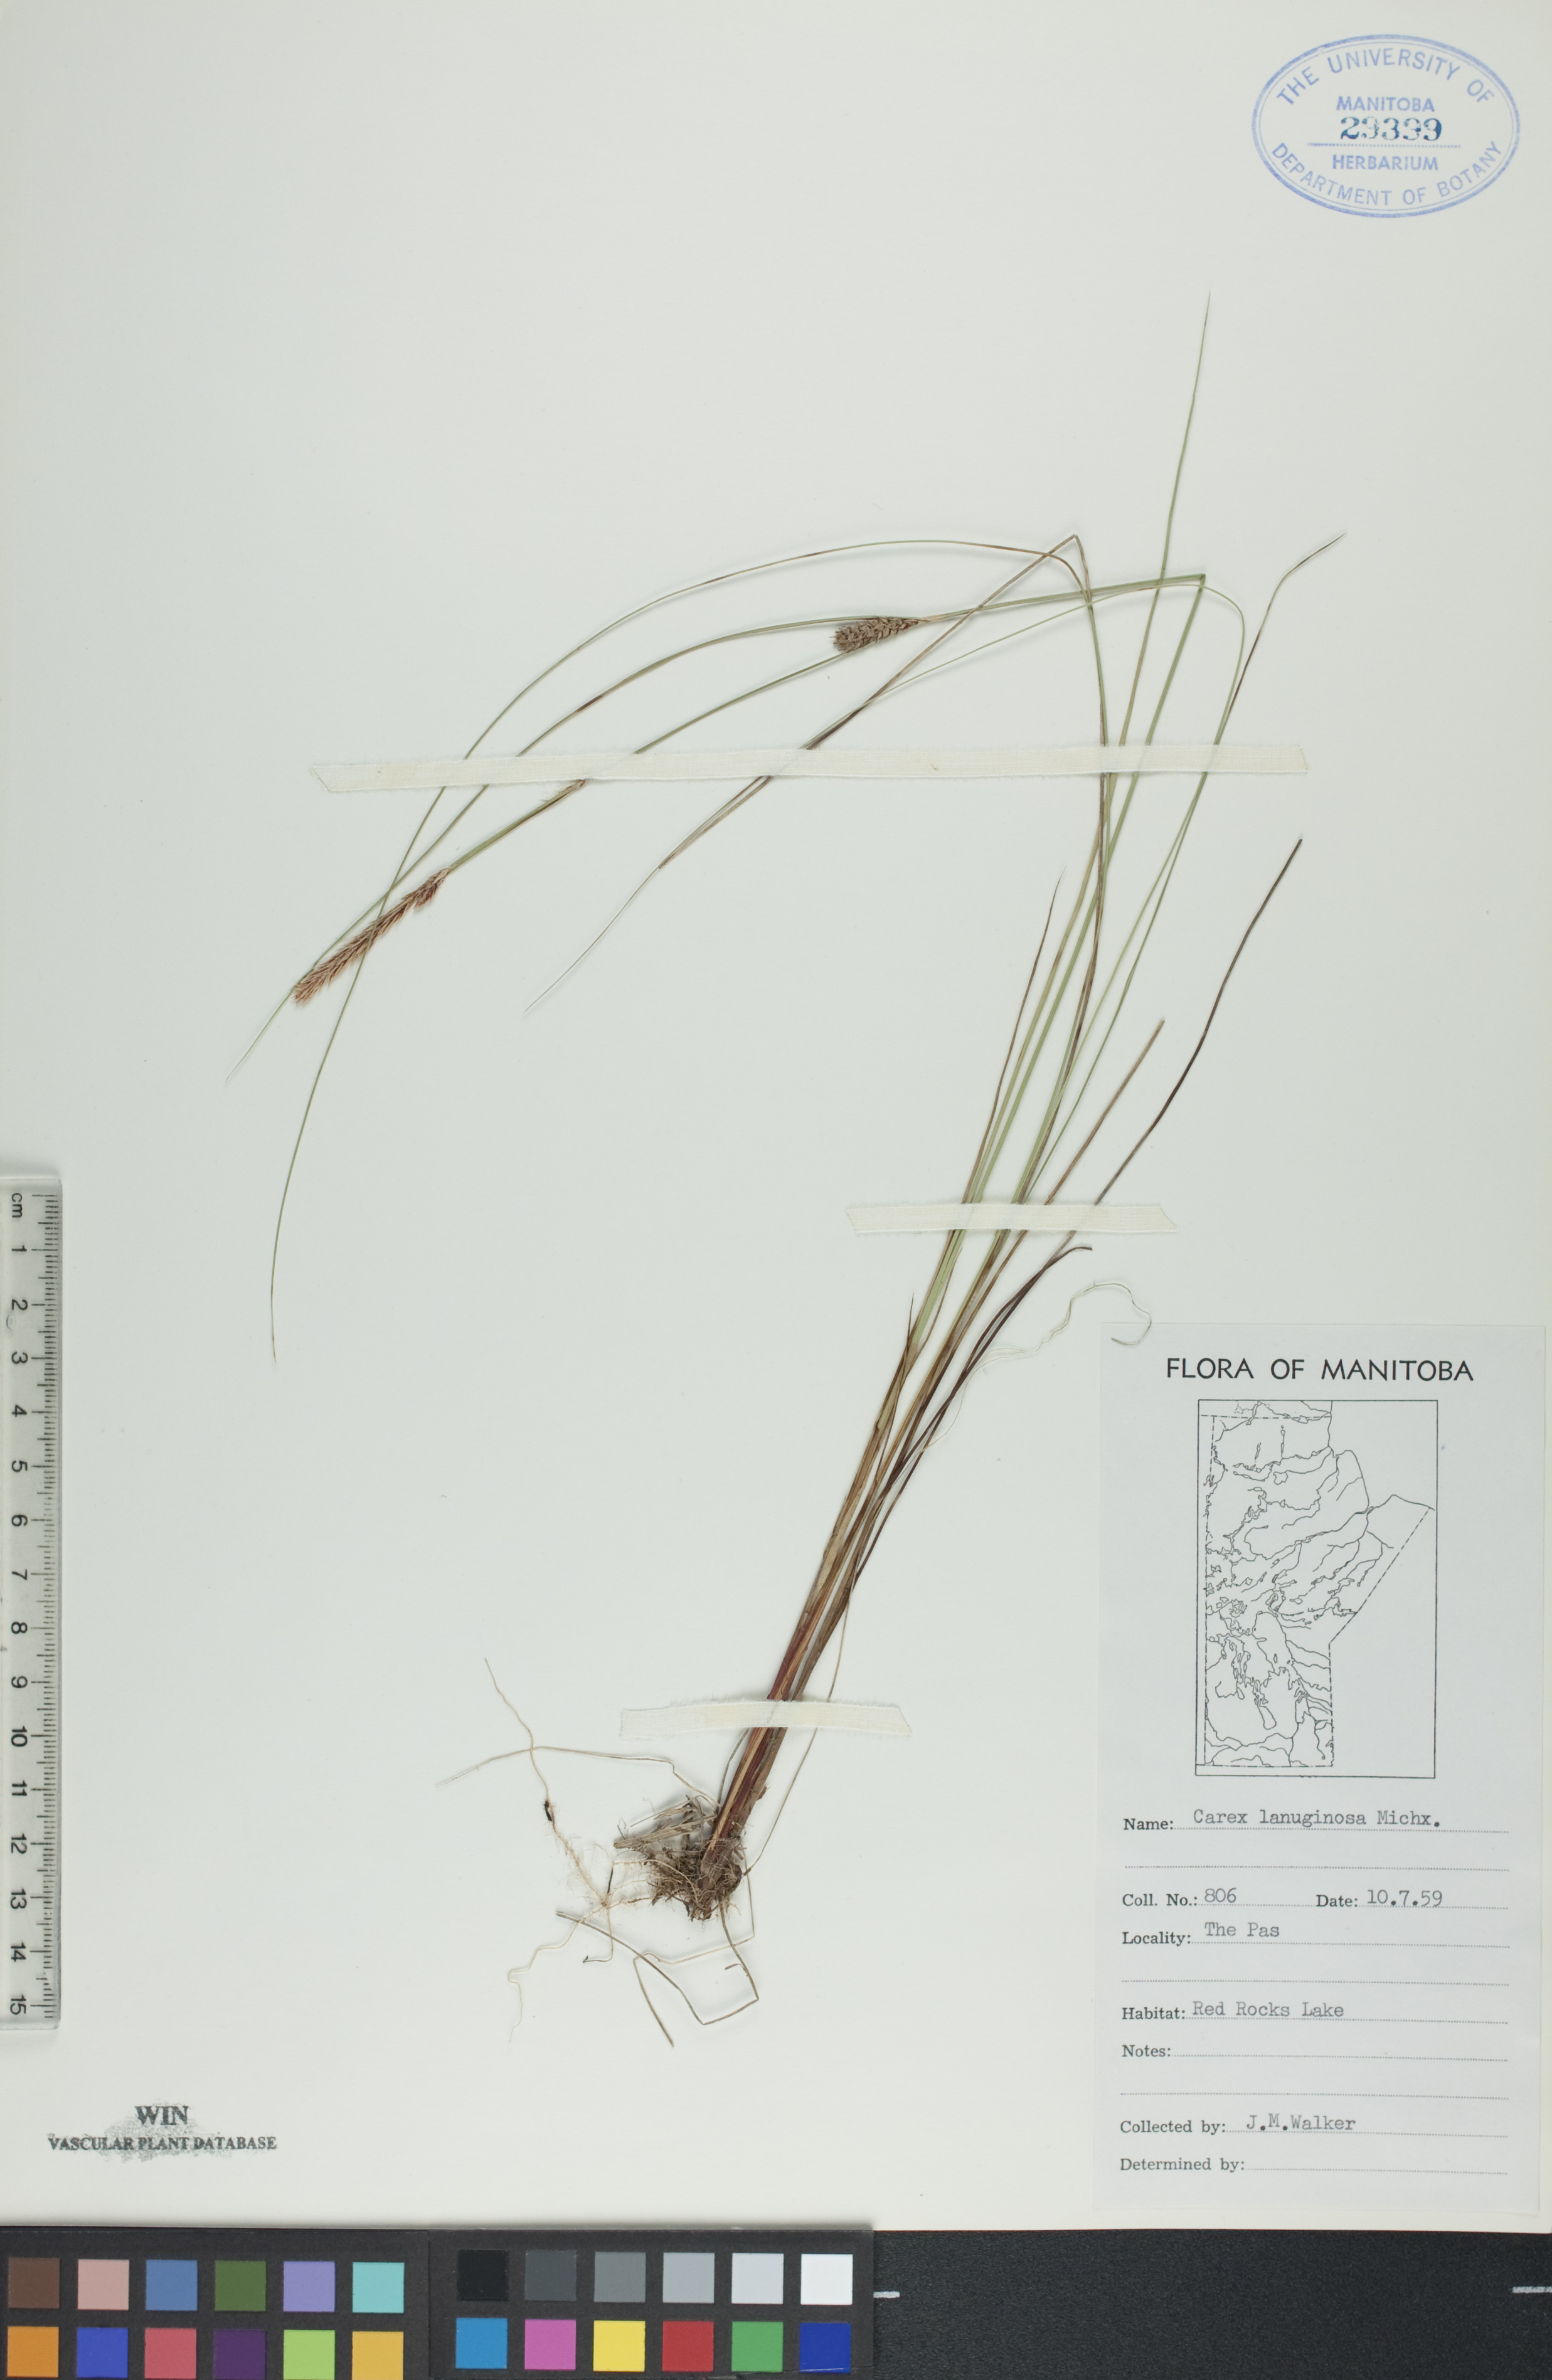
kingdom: Plantae
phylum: Tracheophyta
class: Liliopsida
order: Poales
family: Cyperaceae
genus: Carex
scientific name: Carex lasiocarpa
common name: Slender sedge
